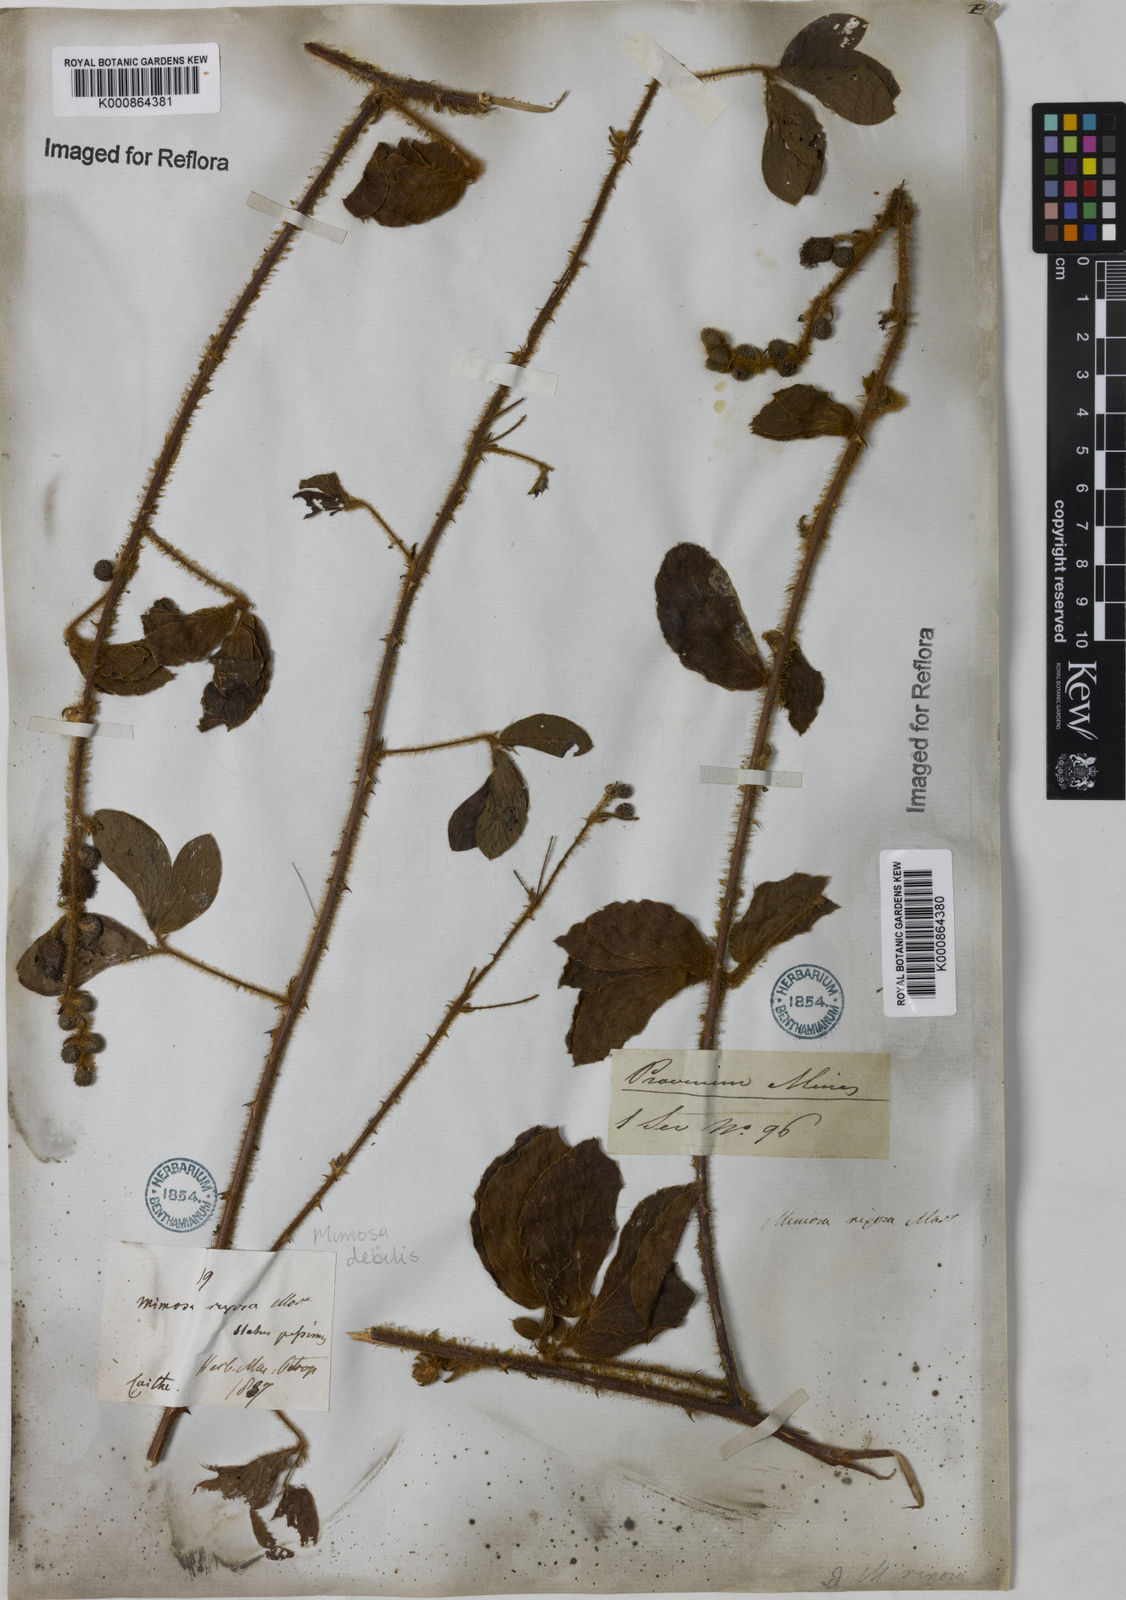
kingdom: Plantae
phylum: Tracheophyta
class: Magnoliopsida
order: Fabales
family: Fabaceae
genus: Mimosa
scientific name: Mimosa debilis
